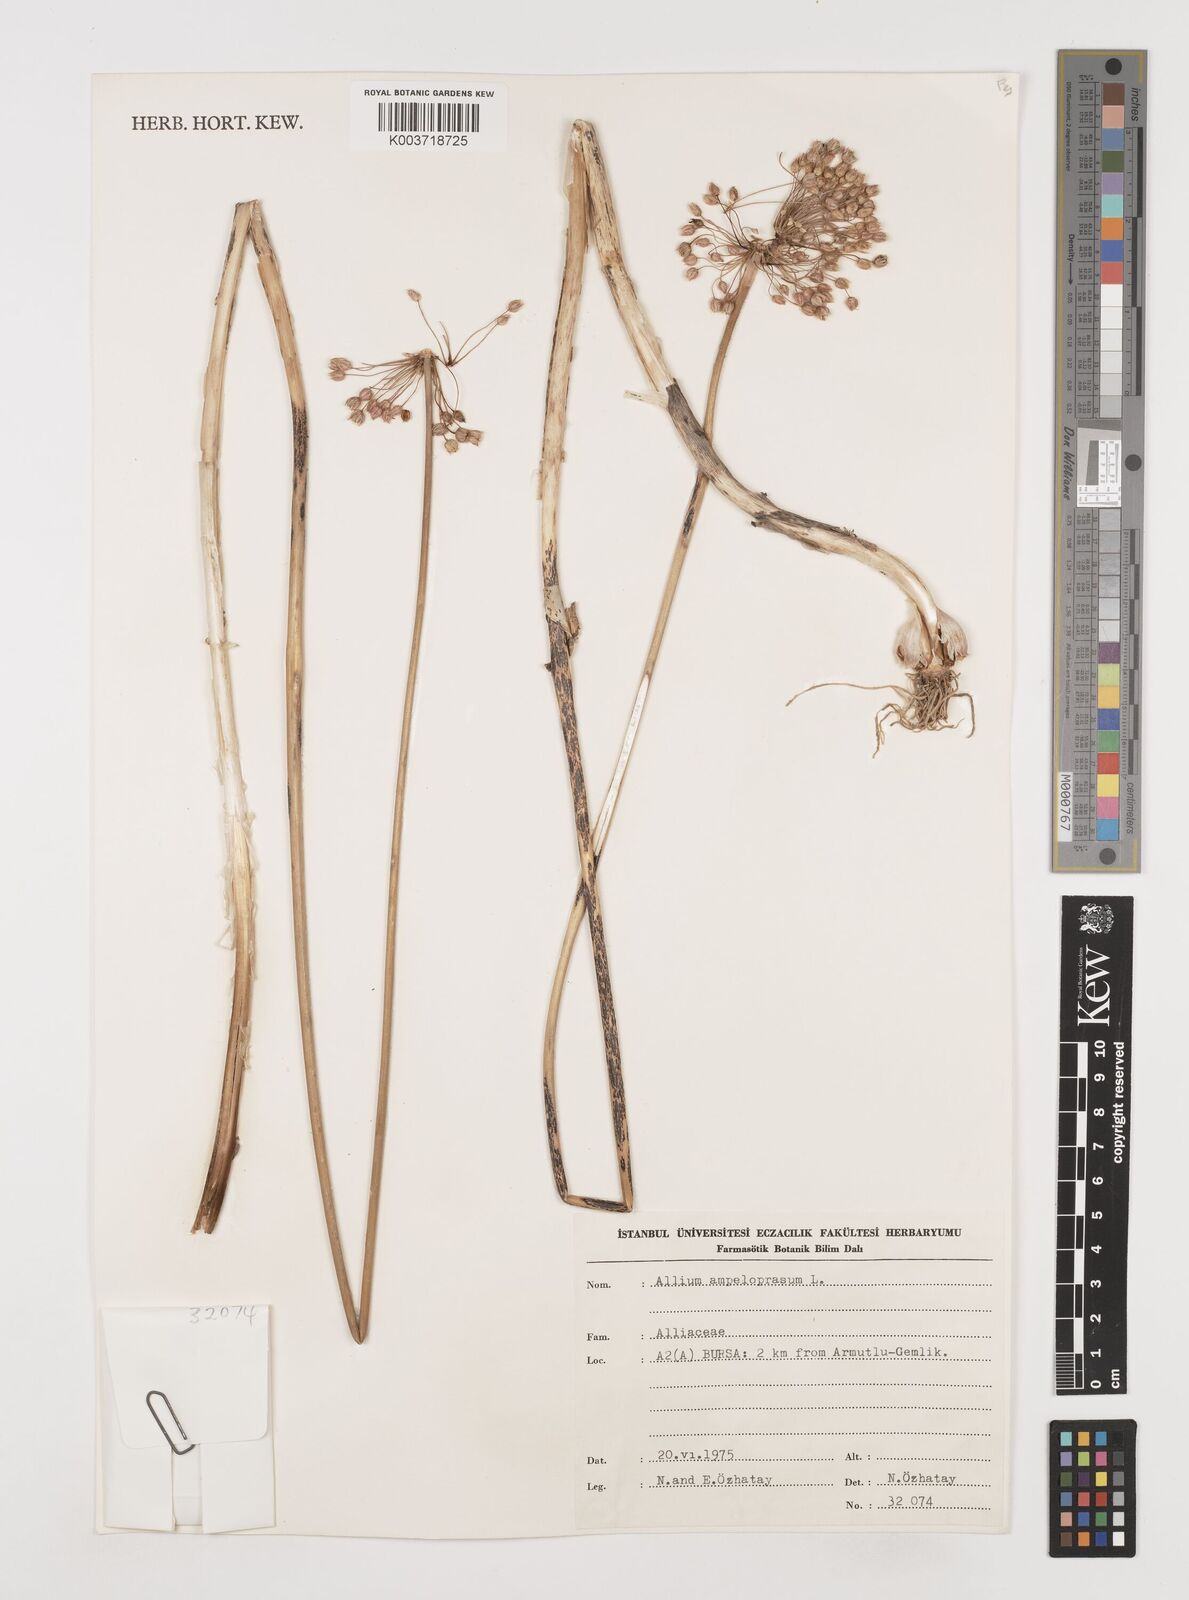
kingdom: Plantae
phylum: Tracheophyta
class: Liliopsida
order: Asparagales
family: Amaryllidaceae
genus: Allium
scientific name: Allium ampeloprasum
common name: Wild leek
